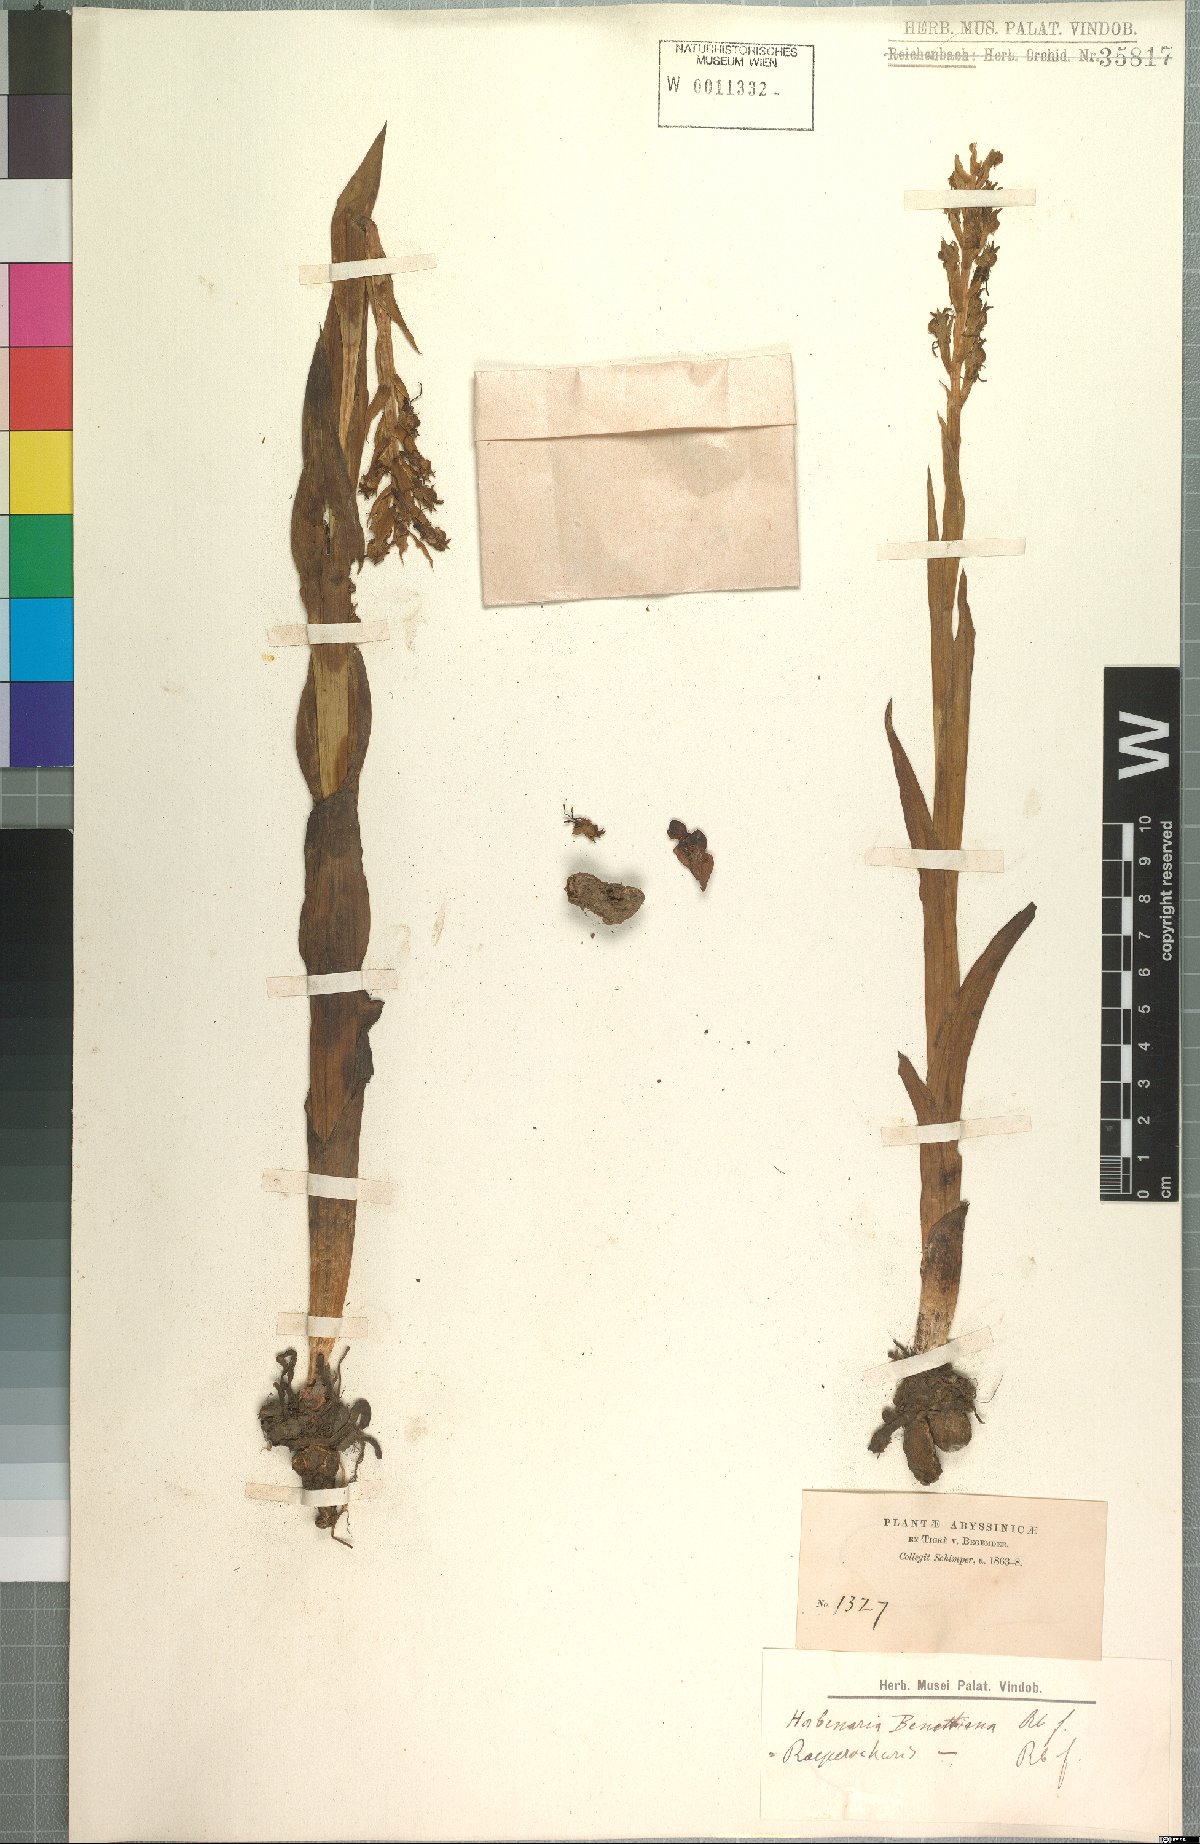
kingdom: Plantae
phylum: Tracheophyta
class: Liliopsida
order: Asparagales
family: Orchidaceae
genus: Roeperocharis
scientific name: Roeperocharis bennettiana
